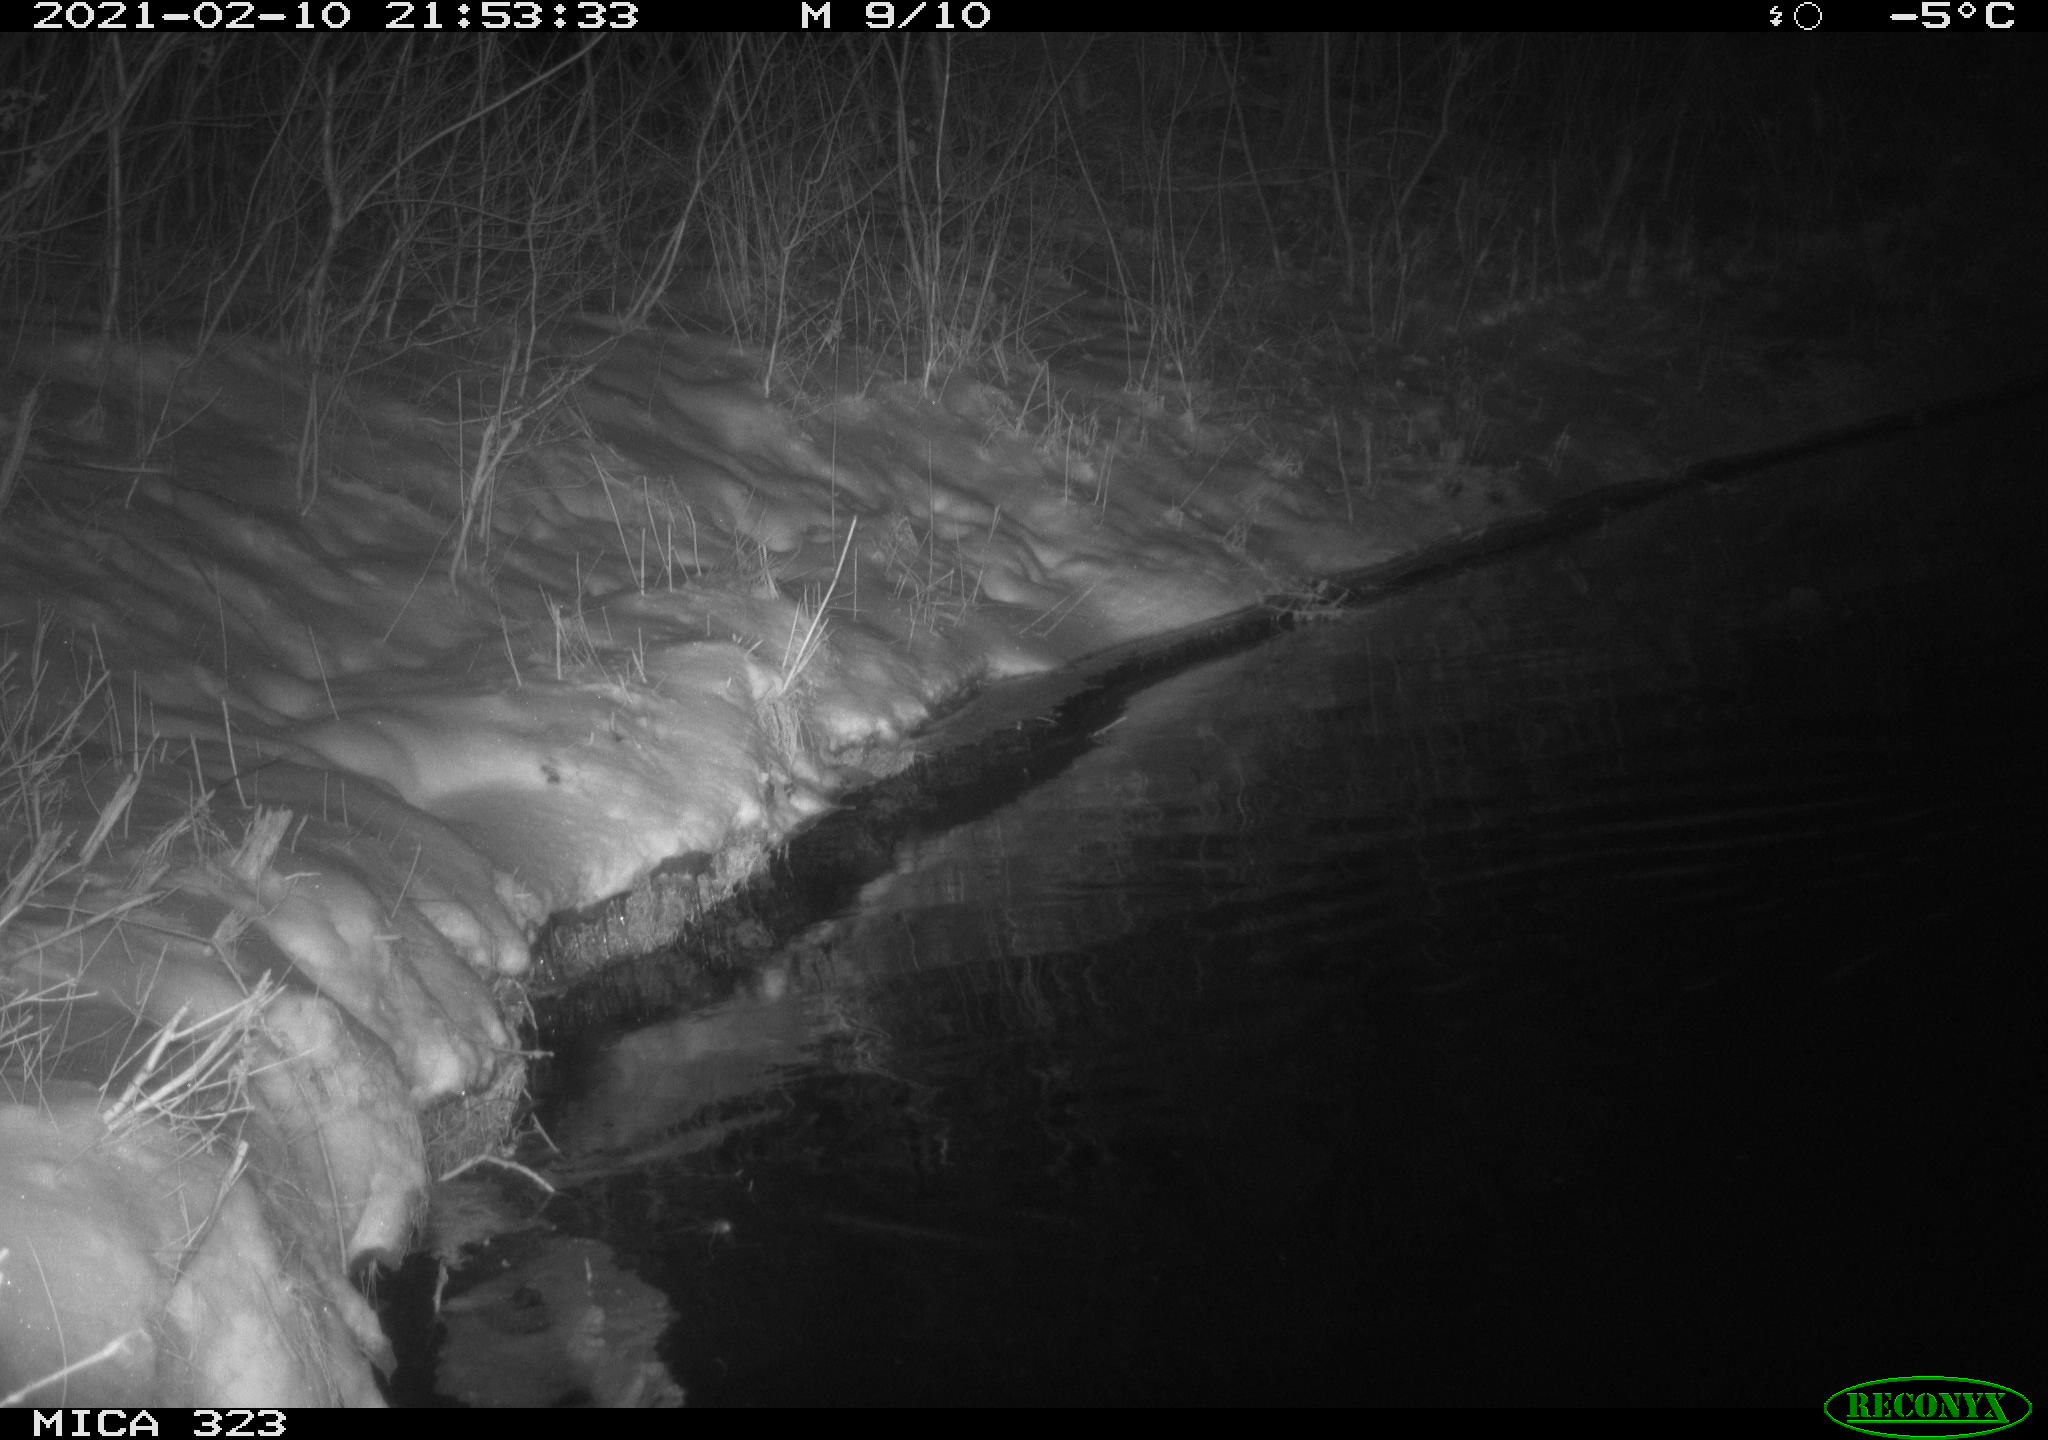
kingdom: Animalia
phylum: Chordata
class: Aves
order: Anseriformes
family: Anatidae
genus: Anas
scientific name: Anas platyrhynchos
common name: Mallard
